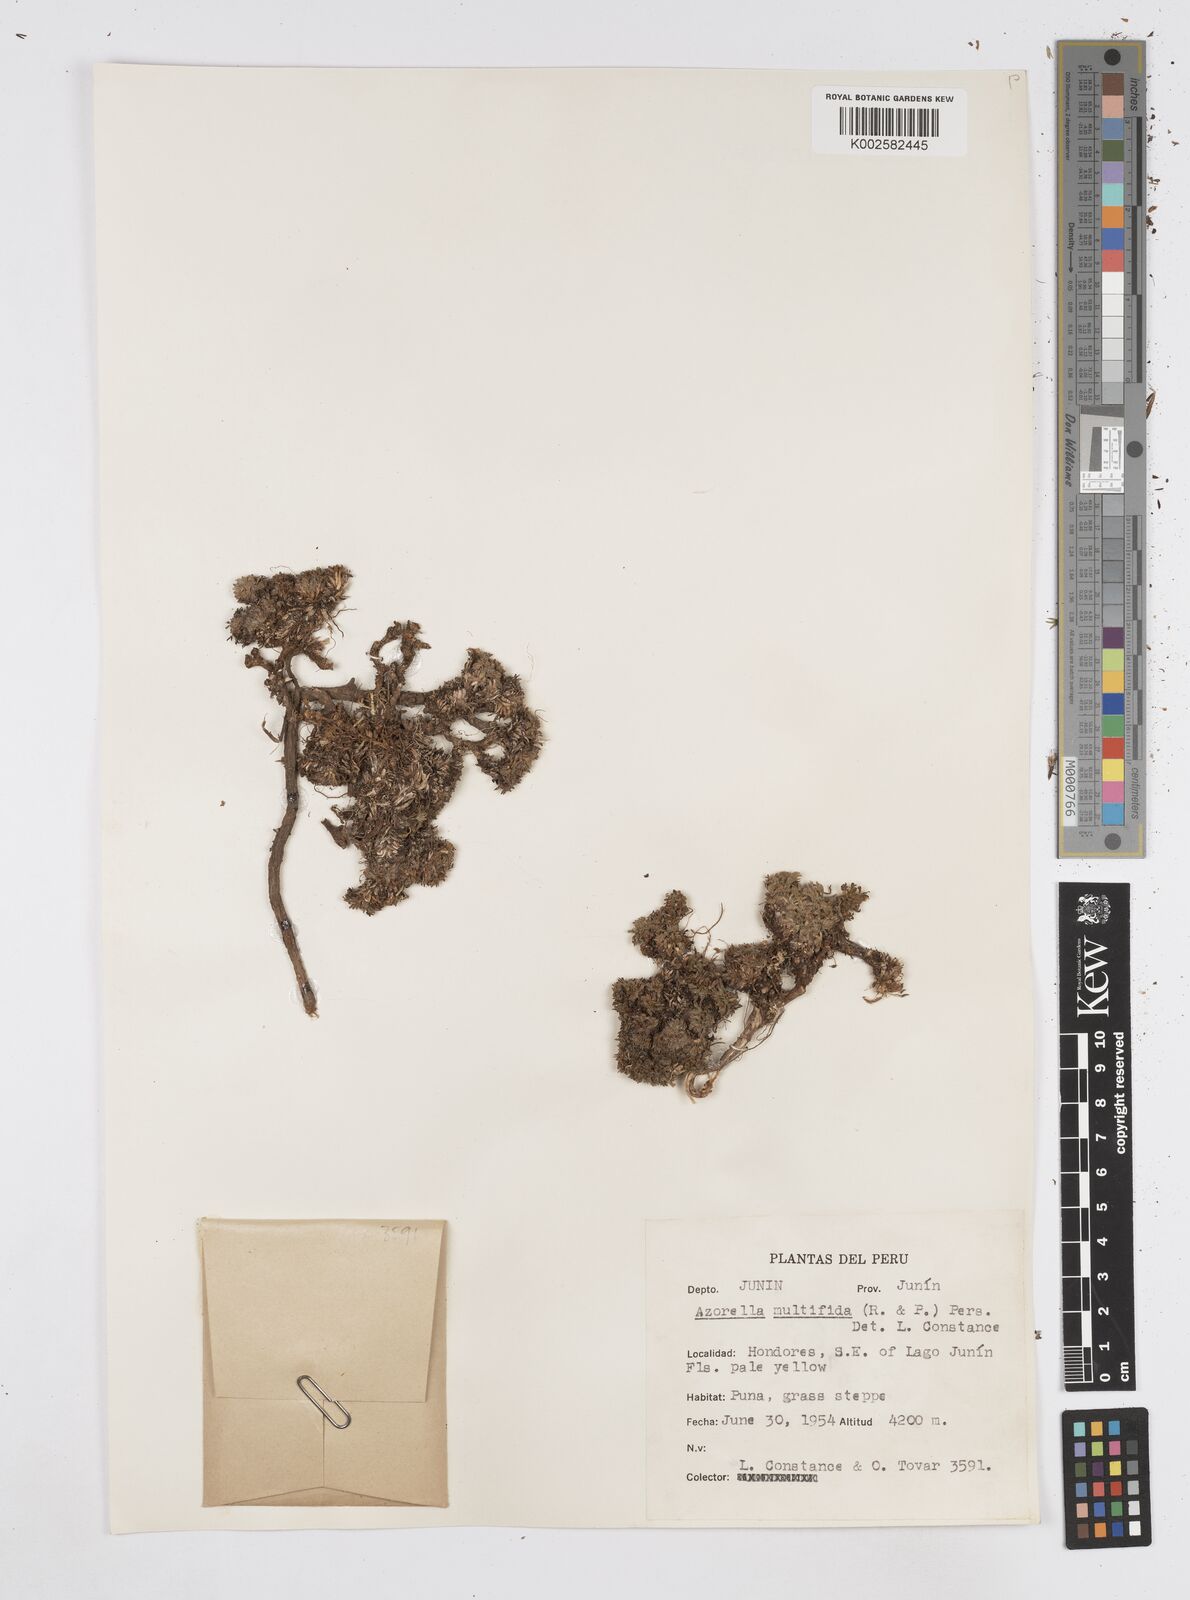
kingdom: Plantae
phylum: Tracheophyta
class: Magnoliopsida
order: Apiales
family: Apiaceae
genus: Azorella
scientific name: Azorella multifida
